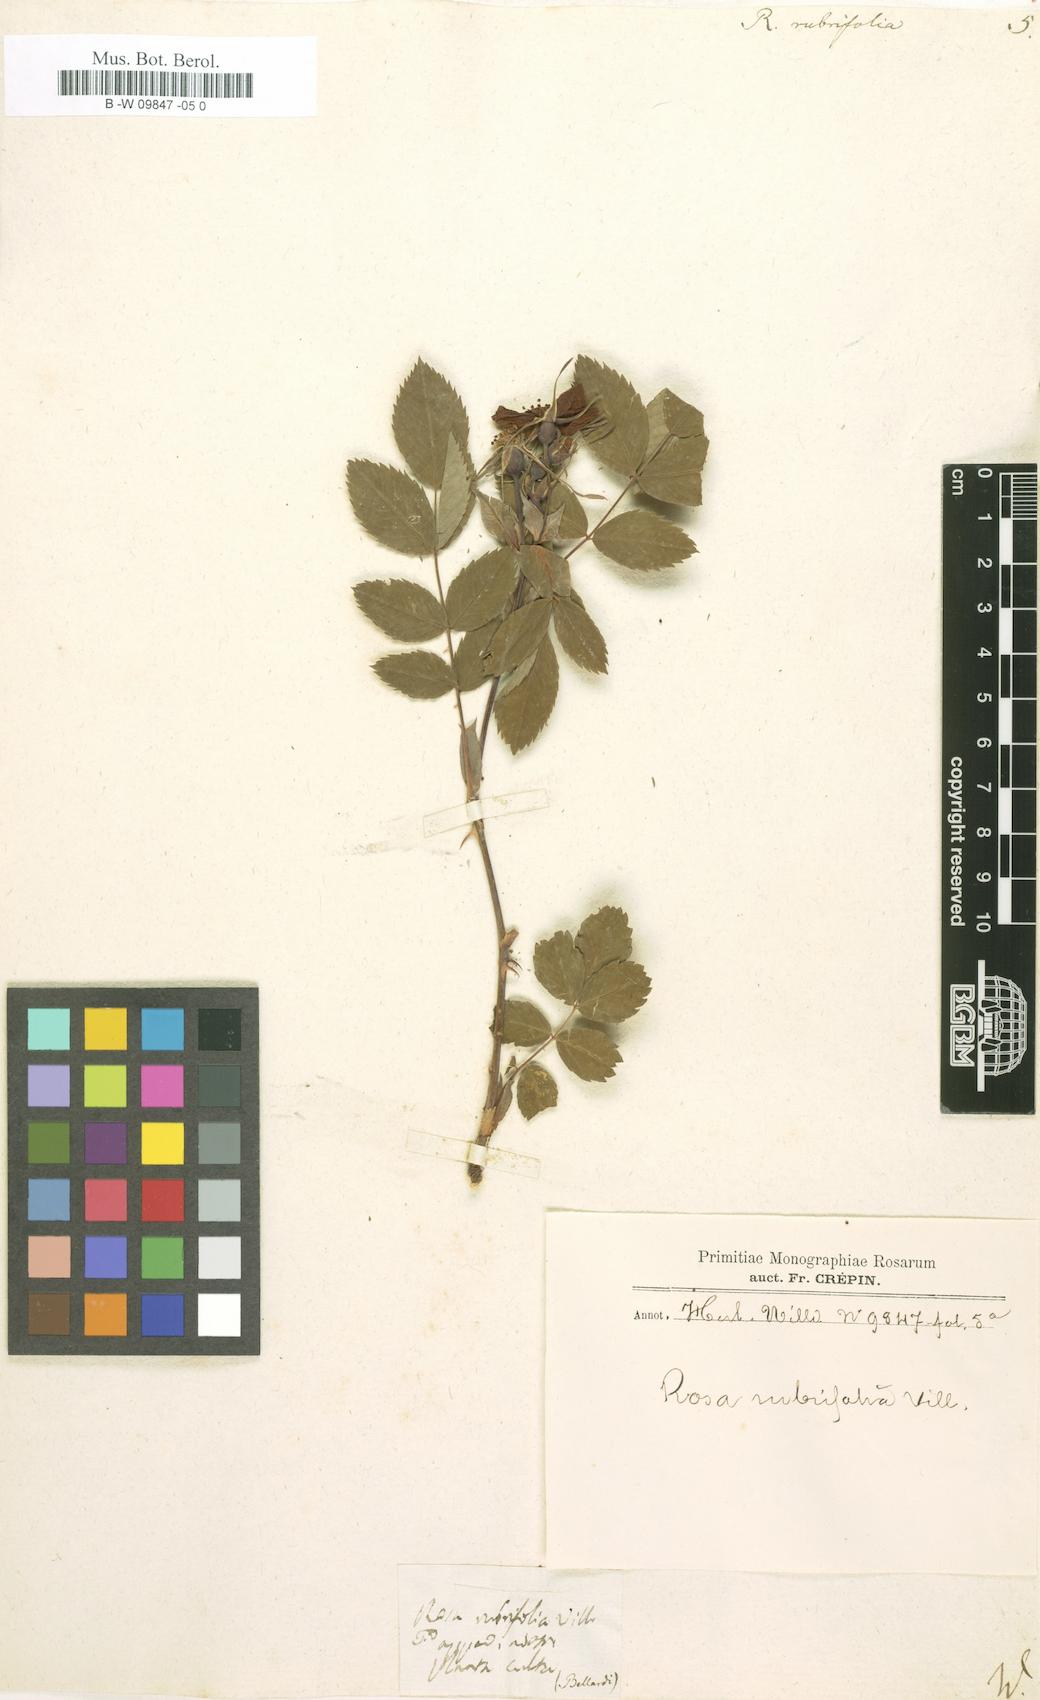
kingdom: Plantae
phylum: Tracheophyta
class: Magnoliopsida
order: Rosales
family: Rosaceae
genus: Rosa
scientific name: Rosa
